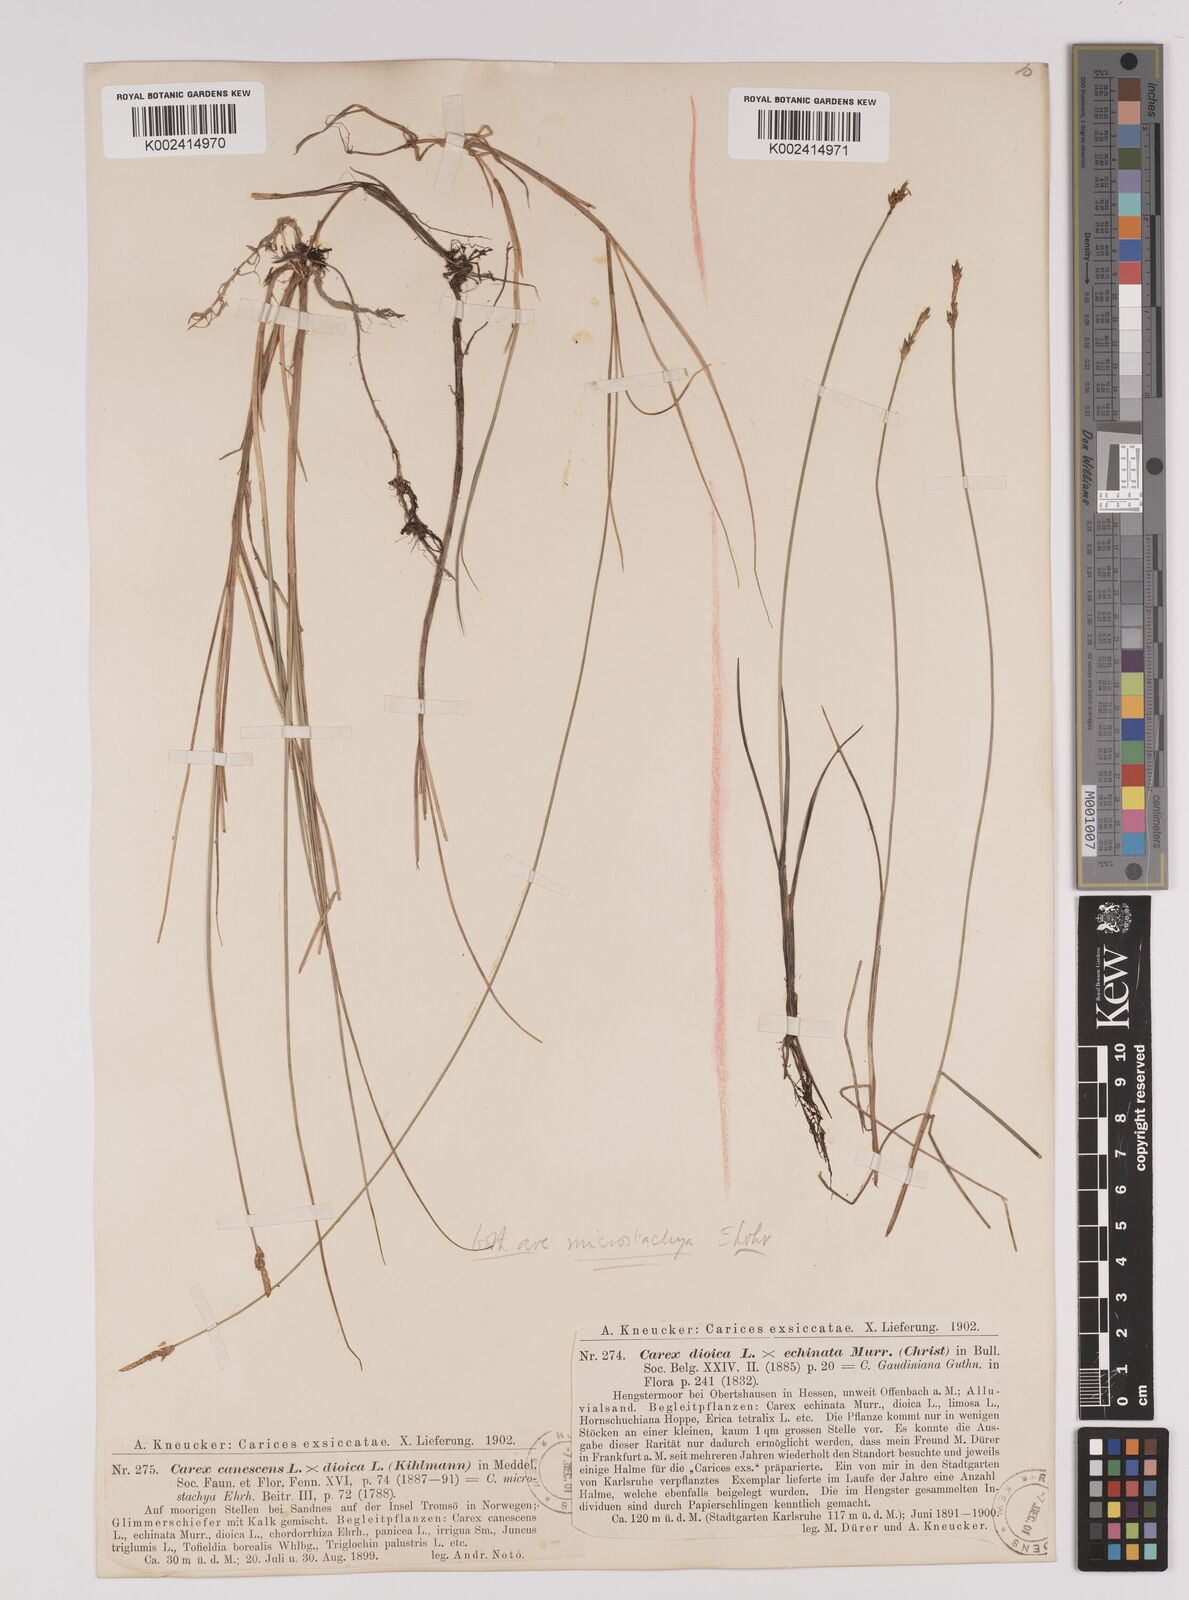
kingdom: Plantae
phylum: Tracheophyta
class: Liliopsida
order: Poales
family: Cyperaceae
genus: Carex
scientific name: Carex dioica
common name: Dioecious sedge
